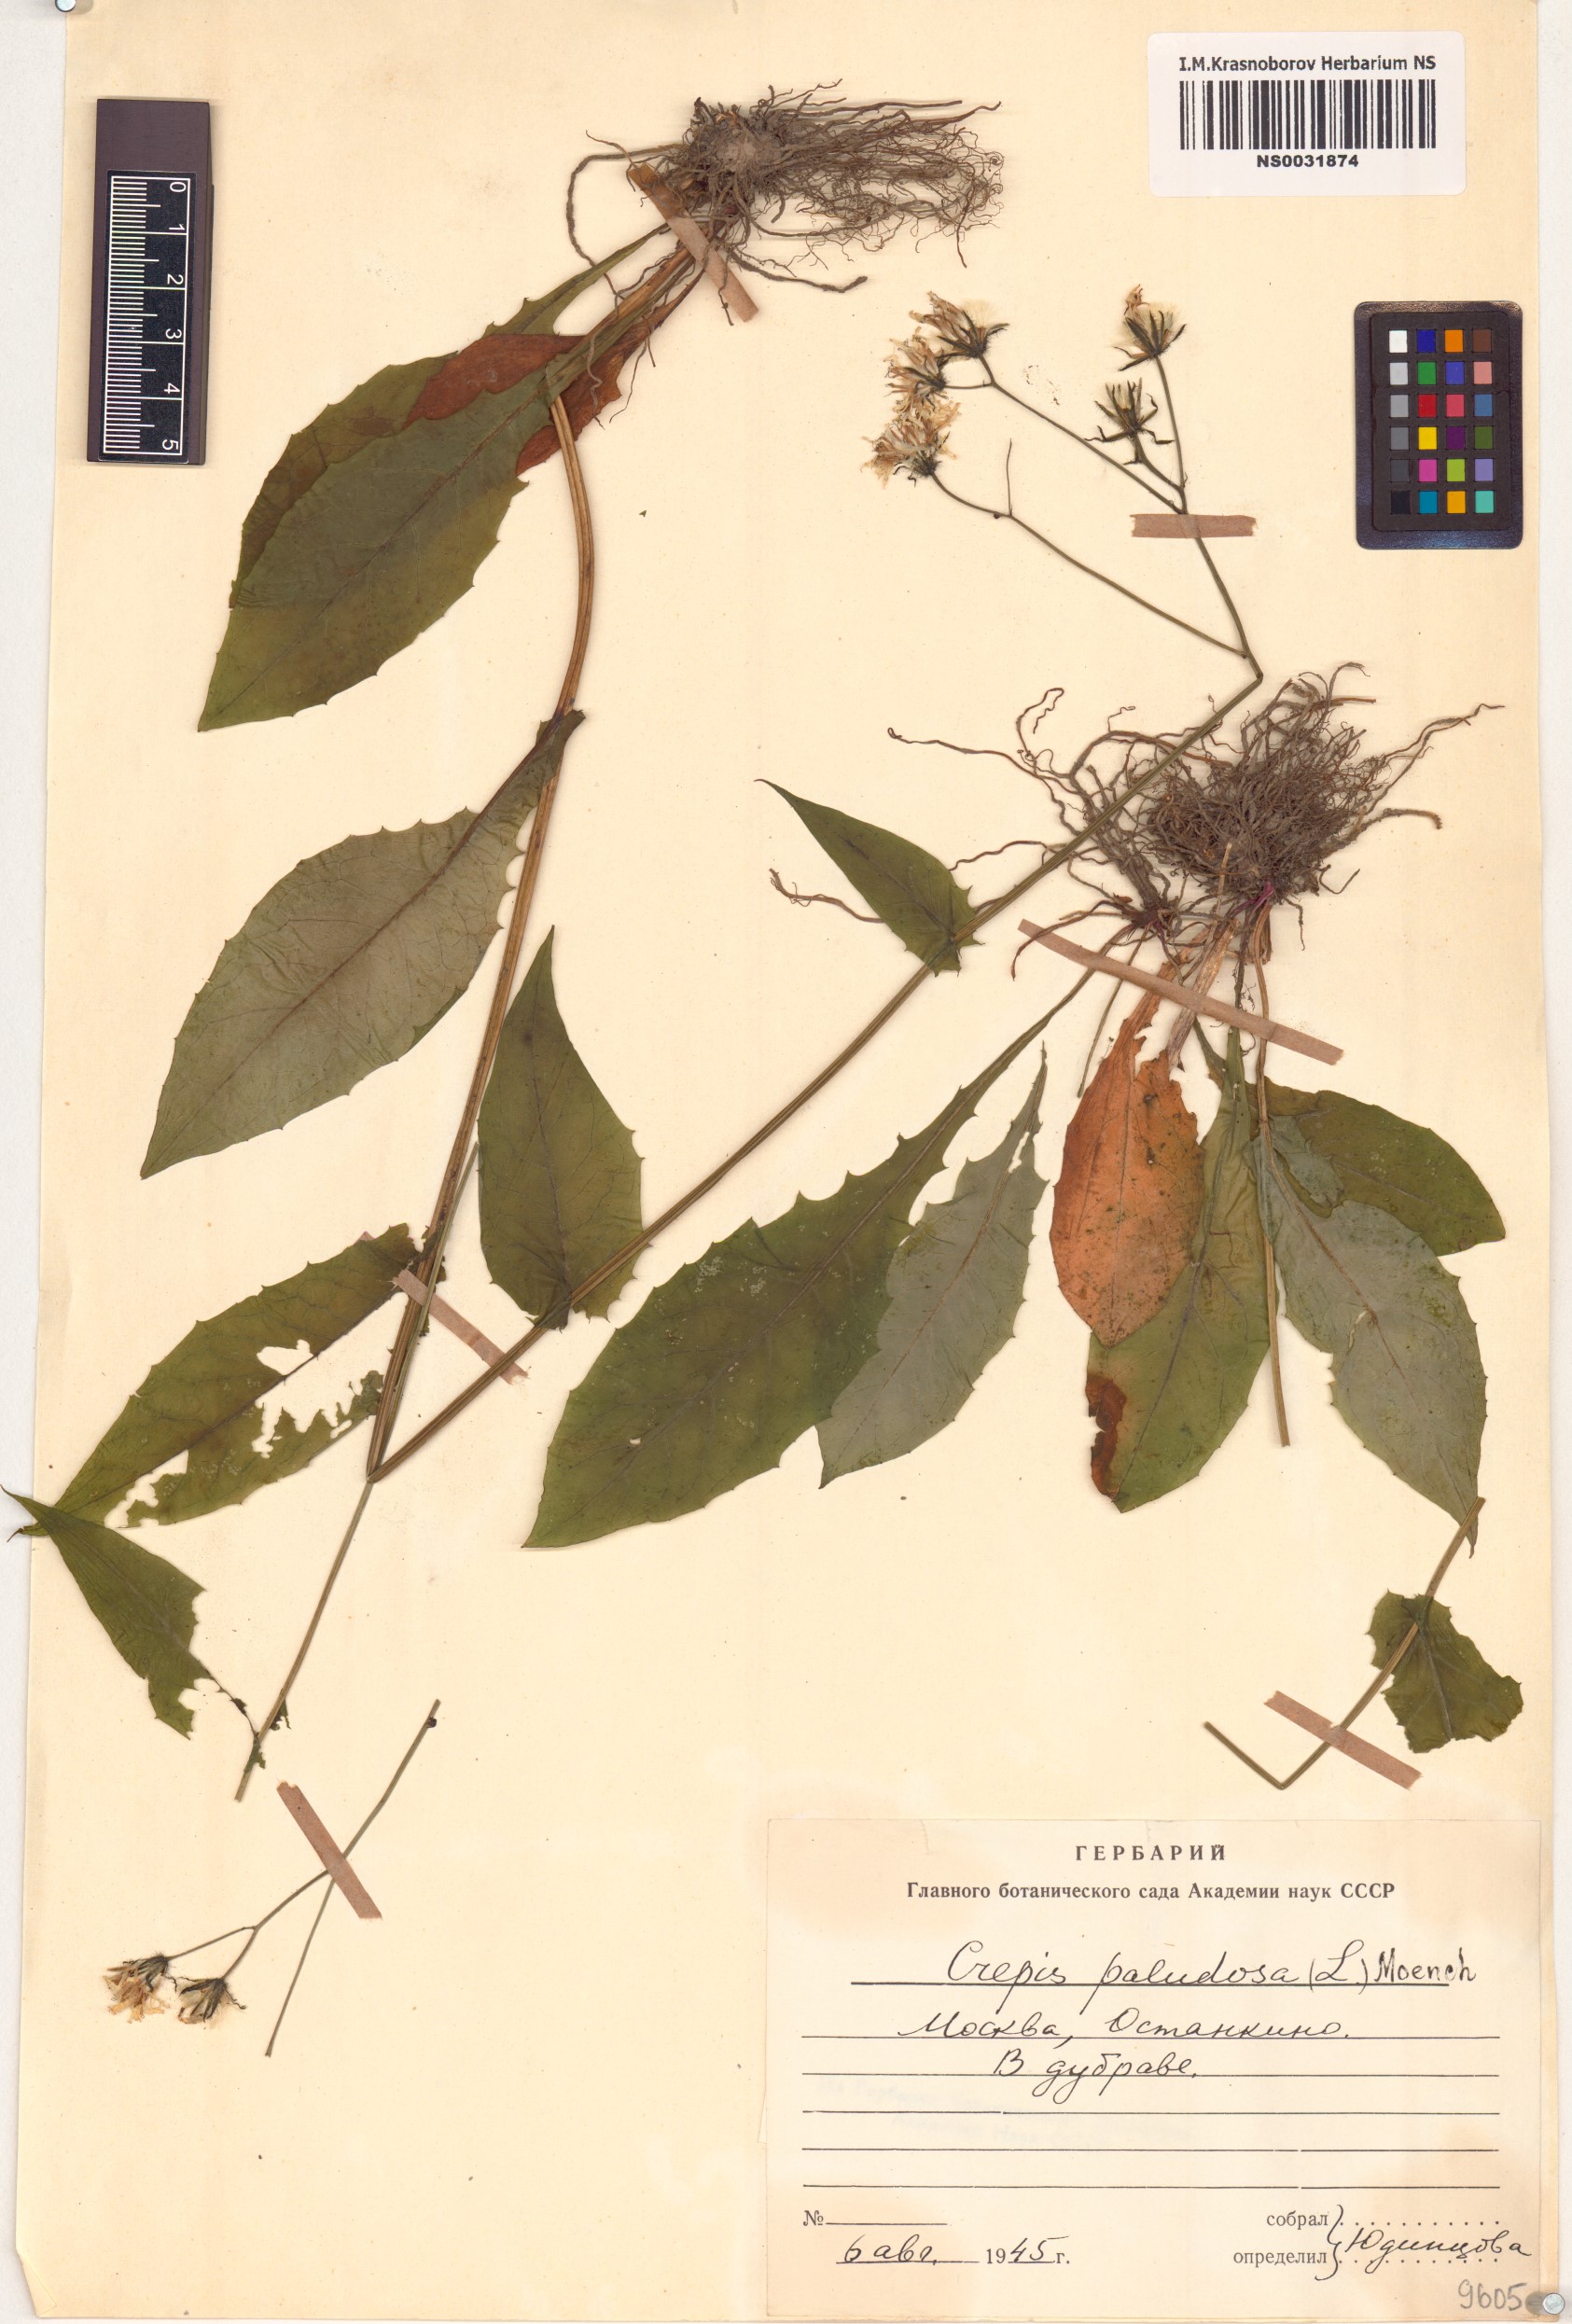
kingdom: Plantae
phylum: Tracheophyta
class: Magnoliopsida
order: Asterales
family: Asteraceae
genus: Crepis
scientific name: Crepis paludosa
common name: Marsh hawk's-beard
